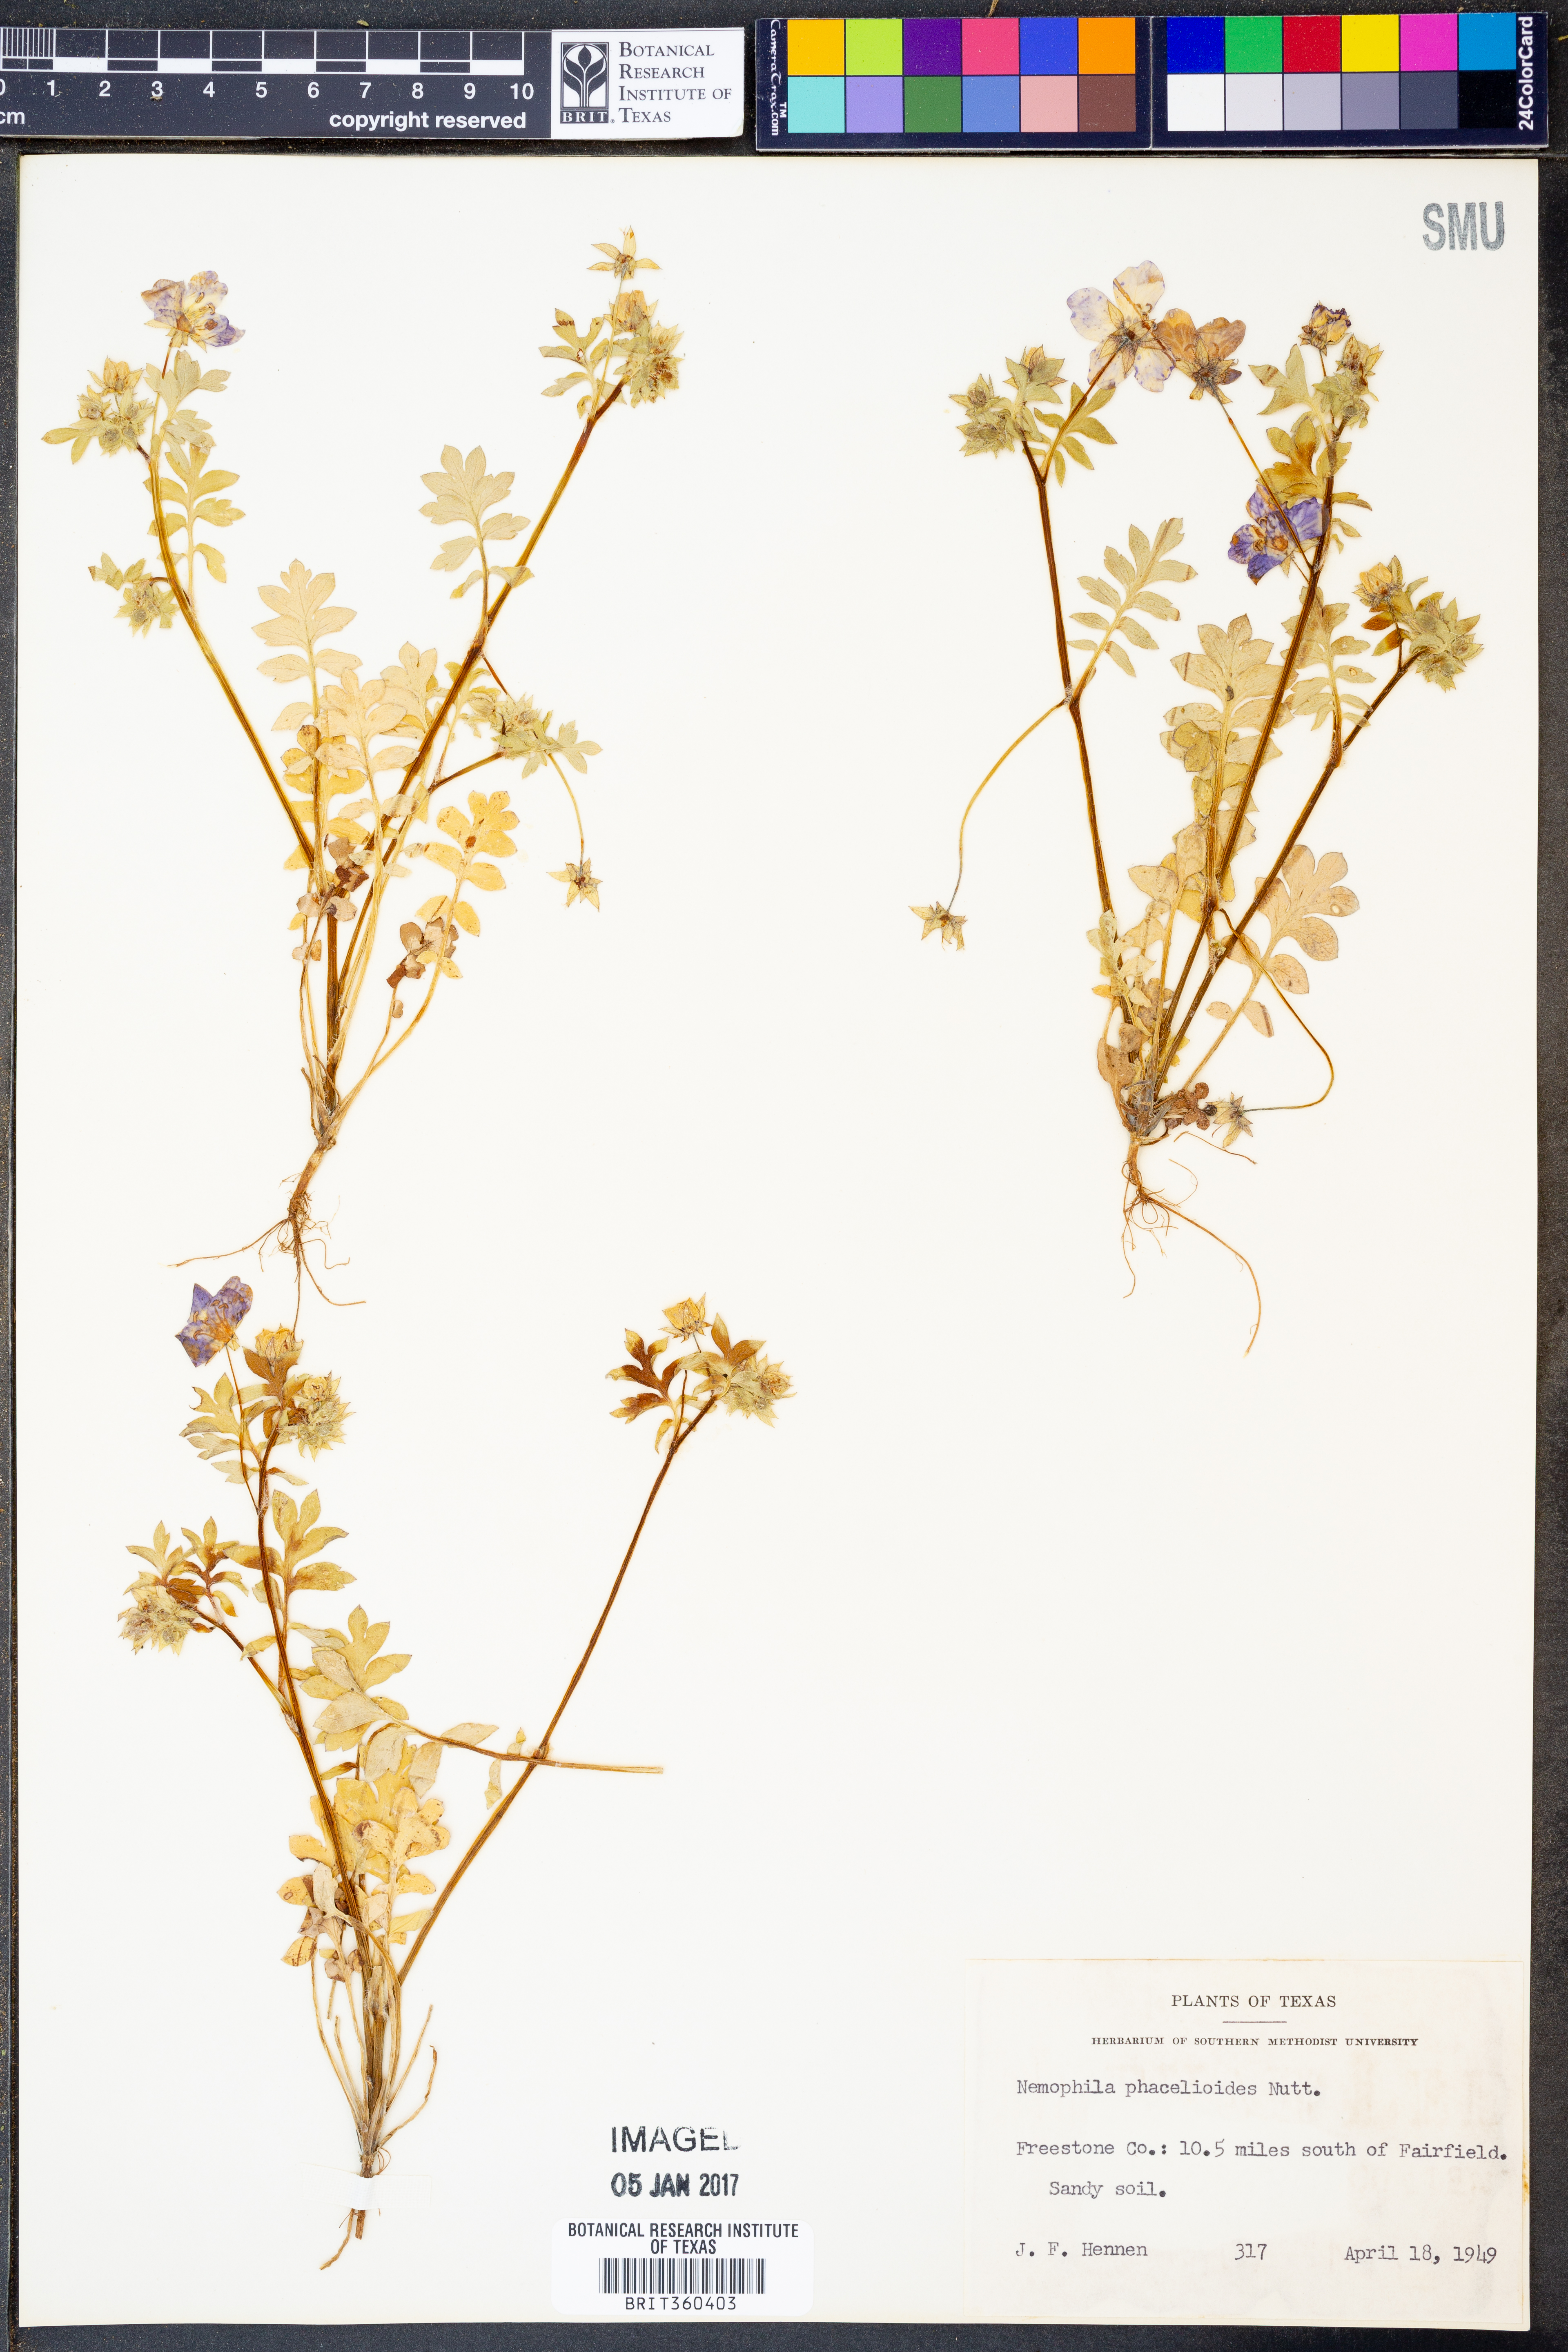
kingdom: Plantae
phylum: Tracheophyta
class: Magnoliopsida
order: Boraginales
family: Hydrophyllaceae
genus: Nemophila
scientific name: Nemophila phacelioides
